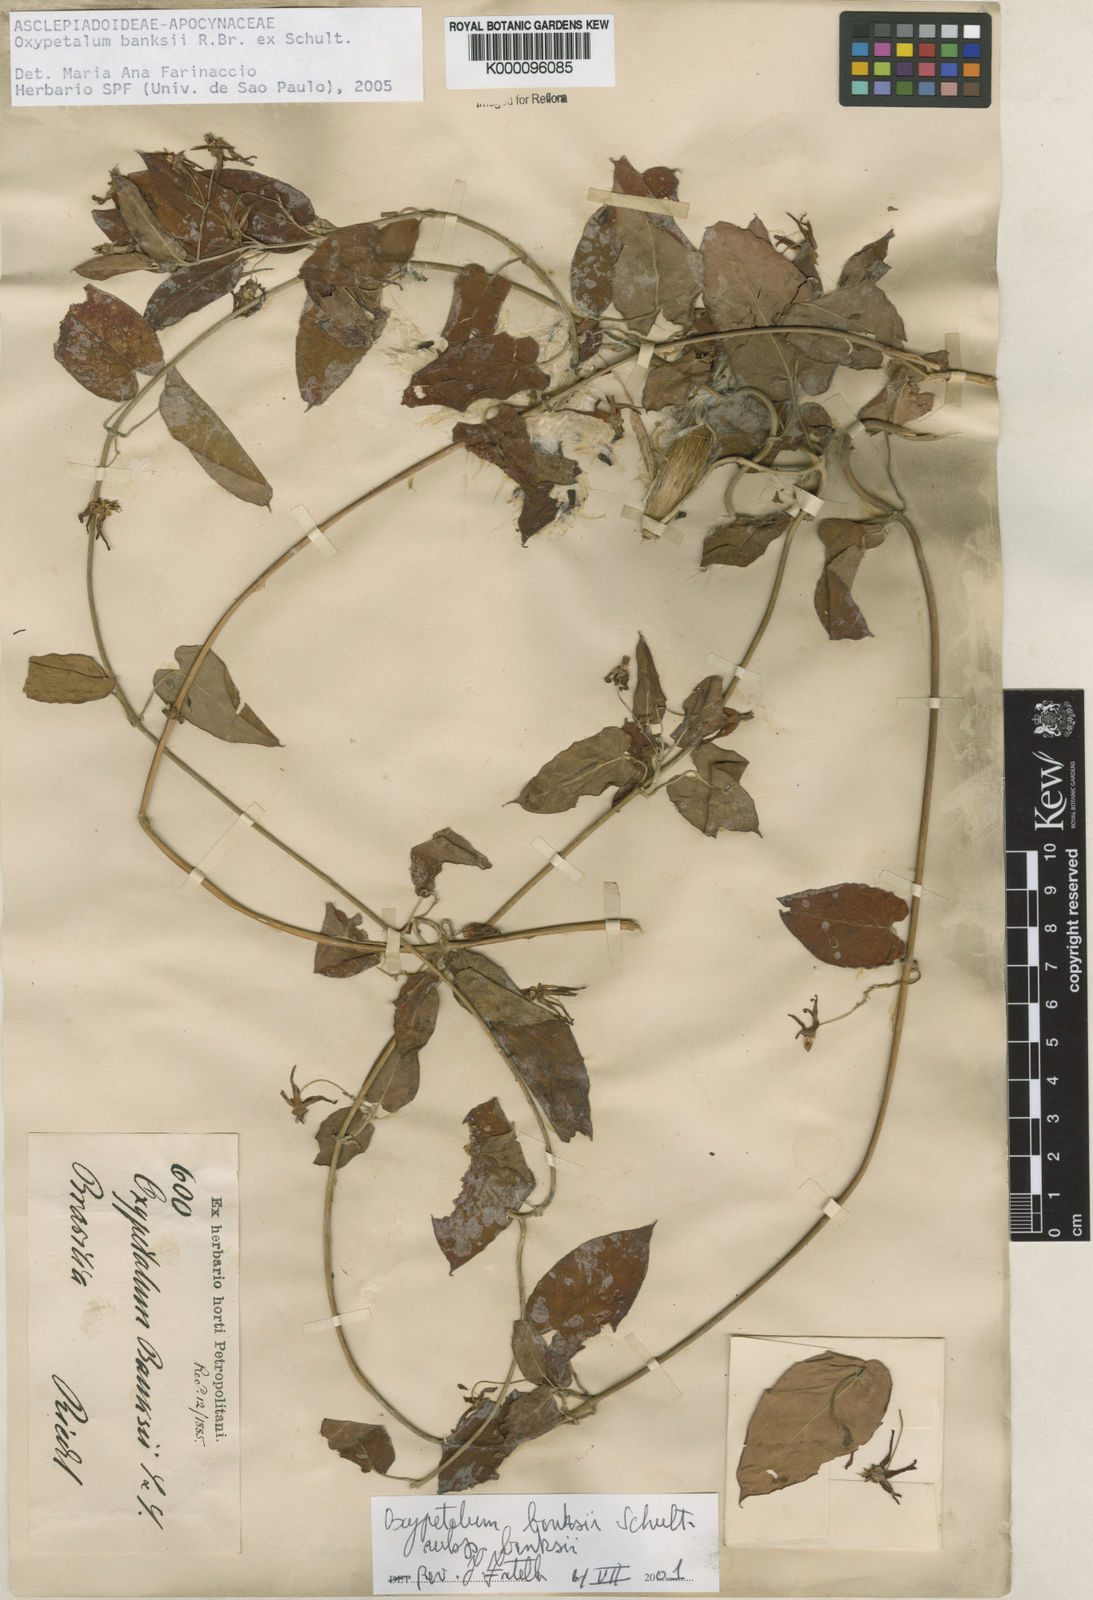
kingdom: Plantae
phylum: Tracheophyta
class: Magnoliopsida
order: Gentianales
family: Apocynaceae
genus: Oxypetalum
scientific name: Oxypetalum banksii
